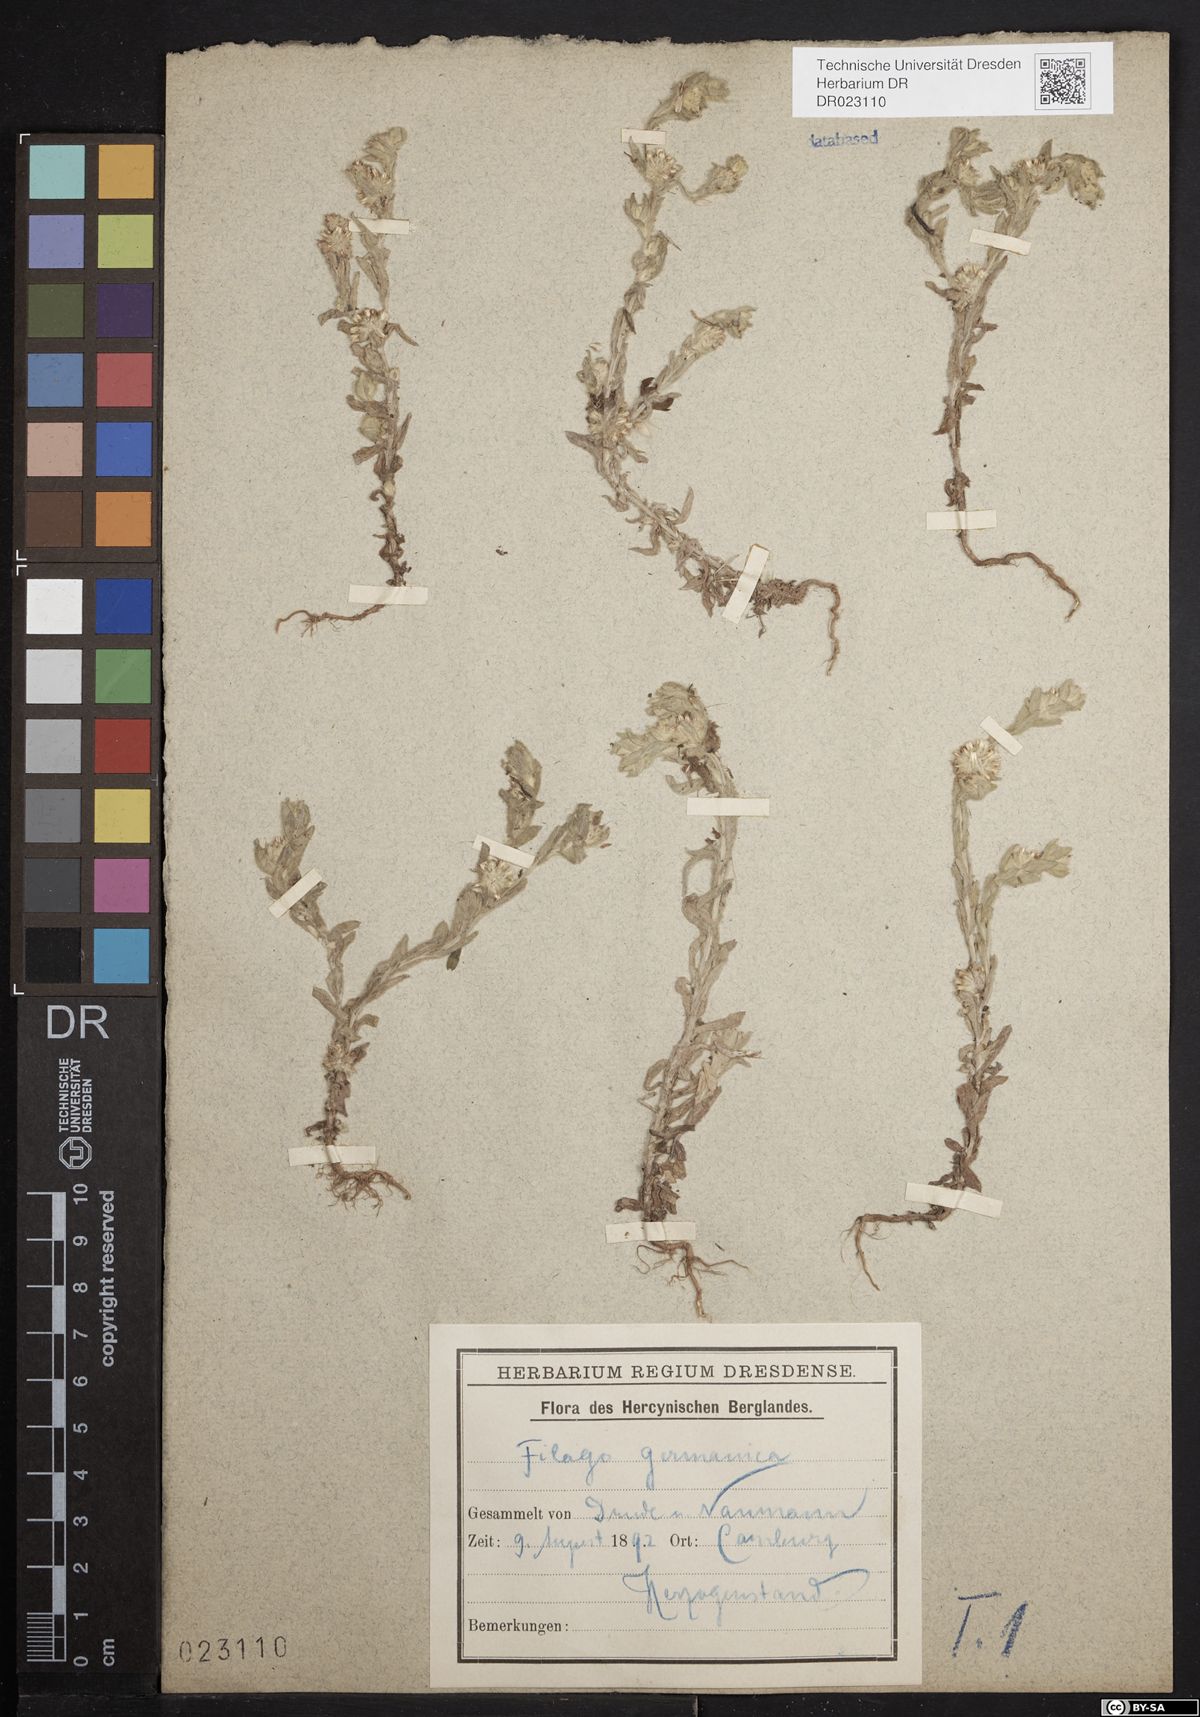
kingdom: Plantae
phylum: Tracheophyta
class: Magnoliopsida
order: Asterales
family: Asteraceae
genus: Filago
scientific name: Filago germanica
